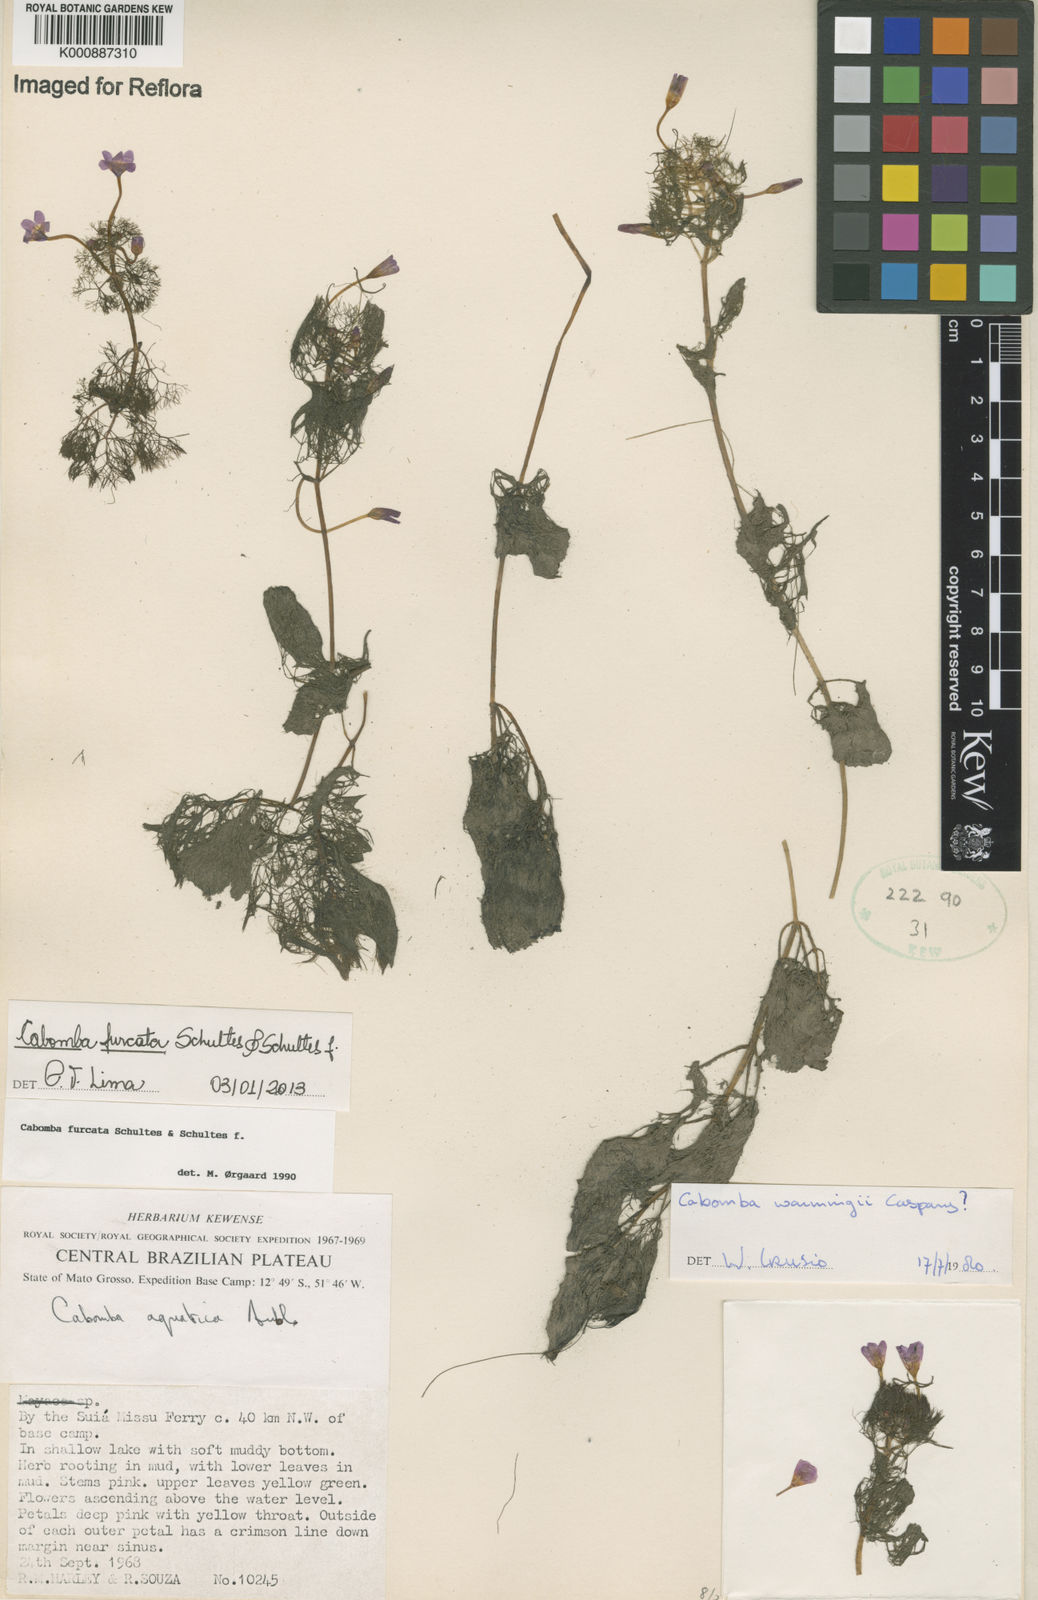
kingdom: Plantae
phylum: Tracheophyta
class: Magnoliopsida
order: Nymphaeales
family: Cabombaceae
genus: Cabomba
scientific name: Cabomba furcata
